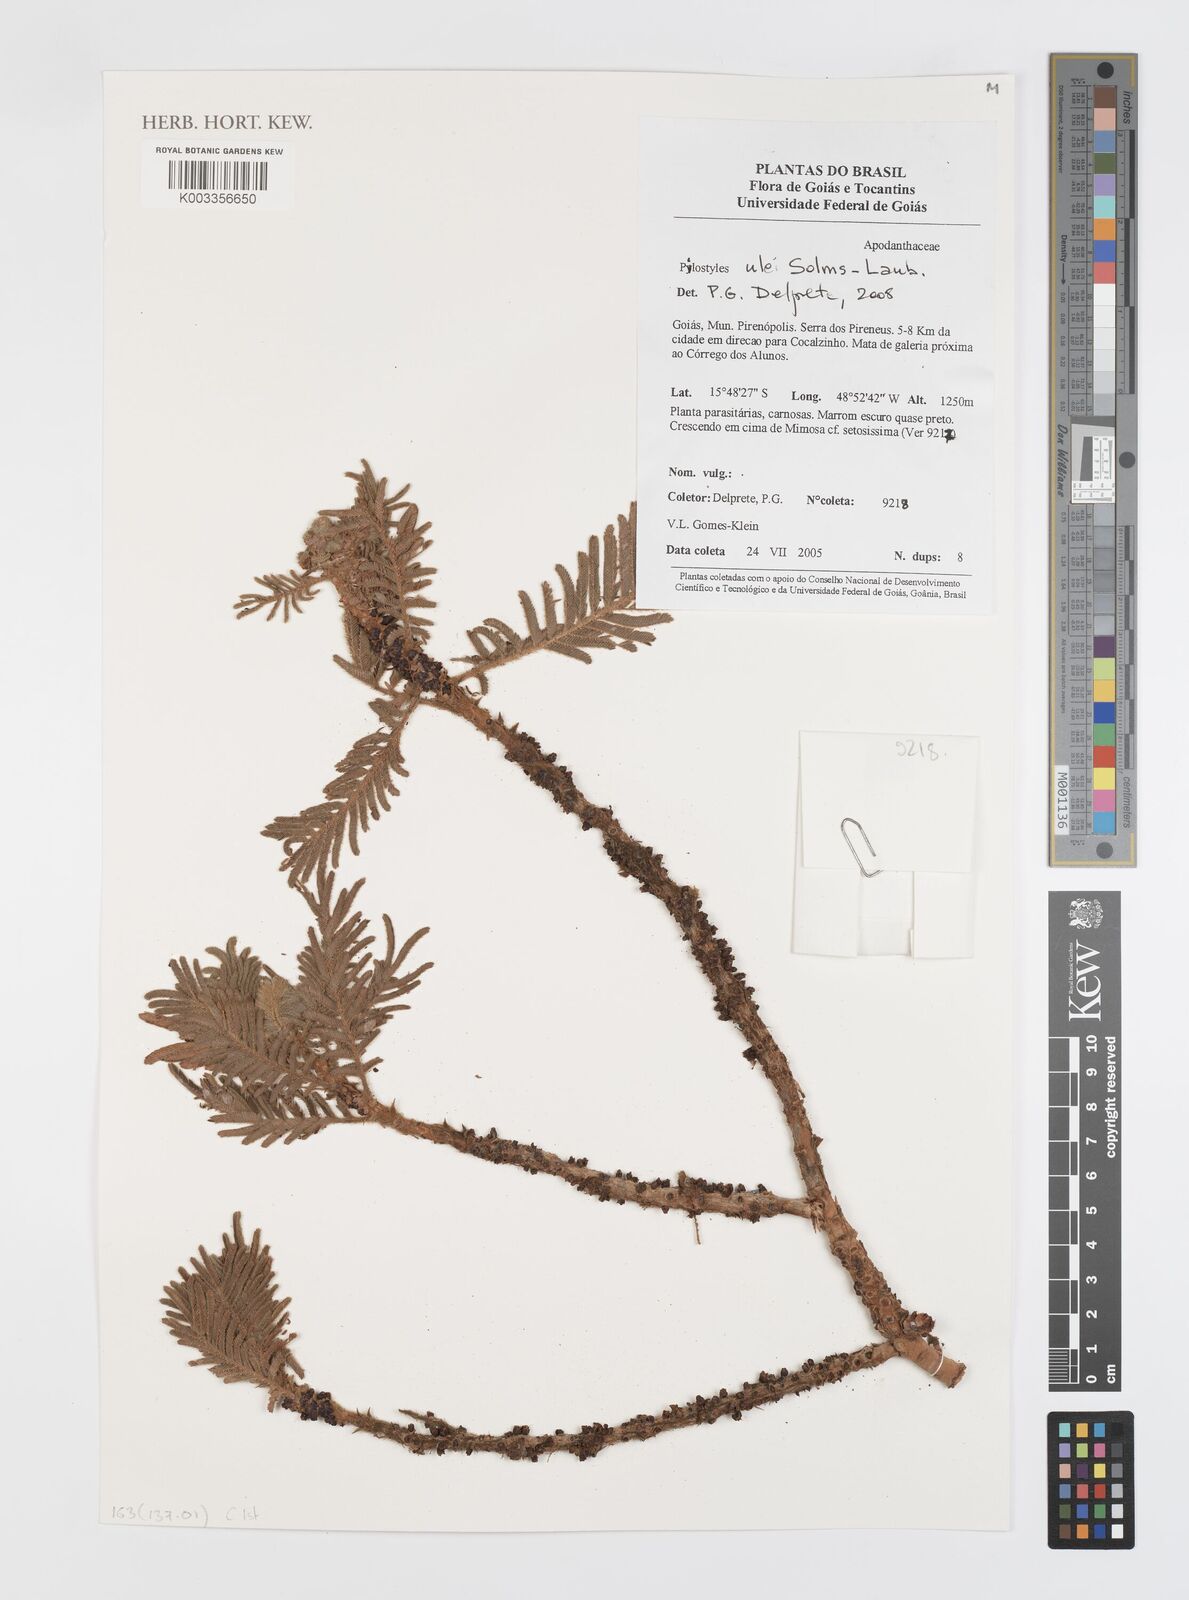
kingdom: Plantae
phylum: Tracheophyta
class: Magnoliopsida
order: Cucurbitales
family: Apodanthaceae
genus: Pilostyles
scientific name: Pilostyles blanchetii
